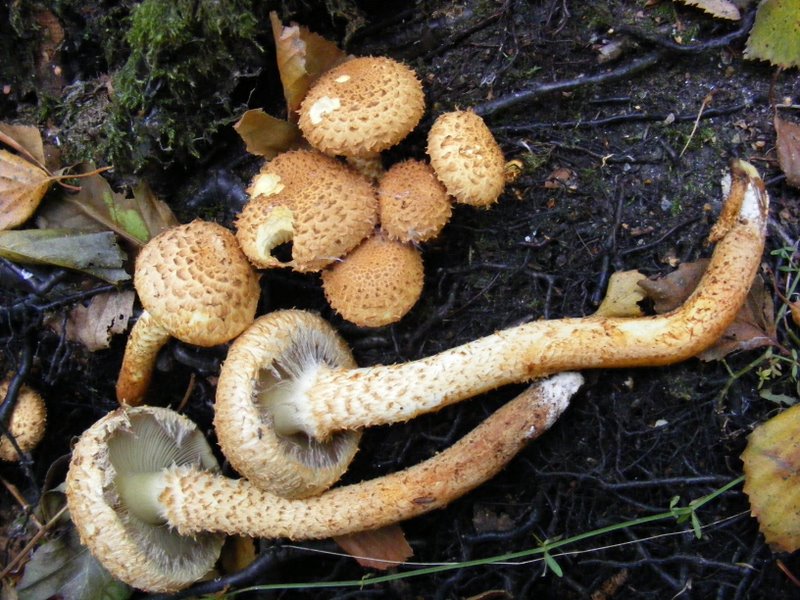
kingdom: Fungi
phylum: Basidiomycota
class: Agaricomycetes
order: Agaricales
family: Strophariaceae
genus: Pholiota
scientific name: Pholiota squarrosa
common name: krumskællet skælhat
